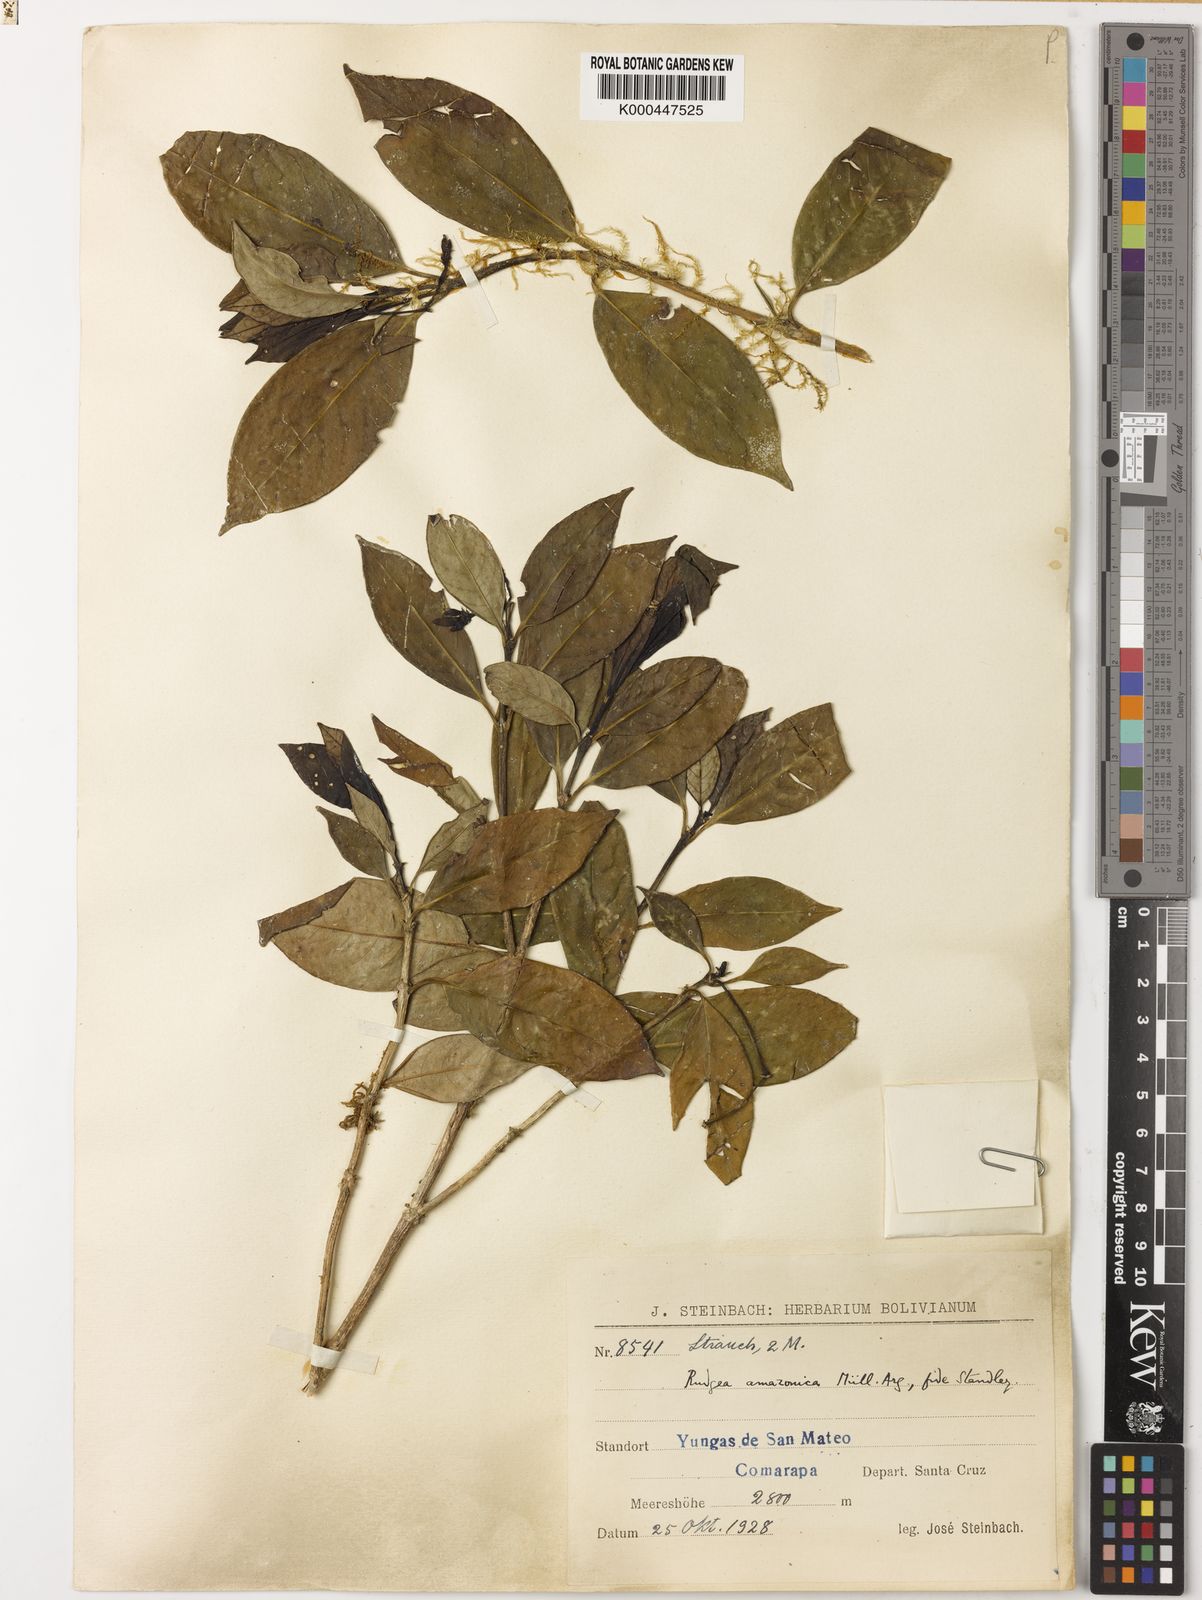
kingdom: Plantae
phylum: Tracheophyta
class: Magnoliopsida
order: Gentianales
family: Rubiaceae
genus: Rudgea
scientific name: Rudgea erioloba
